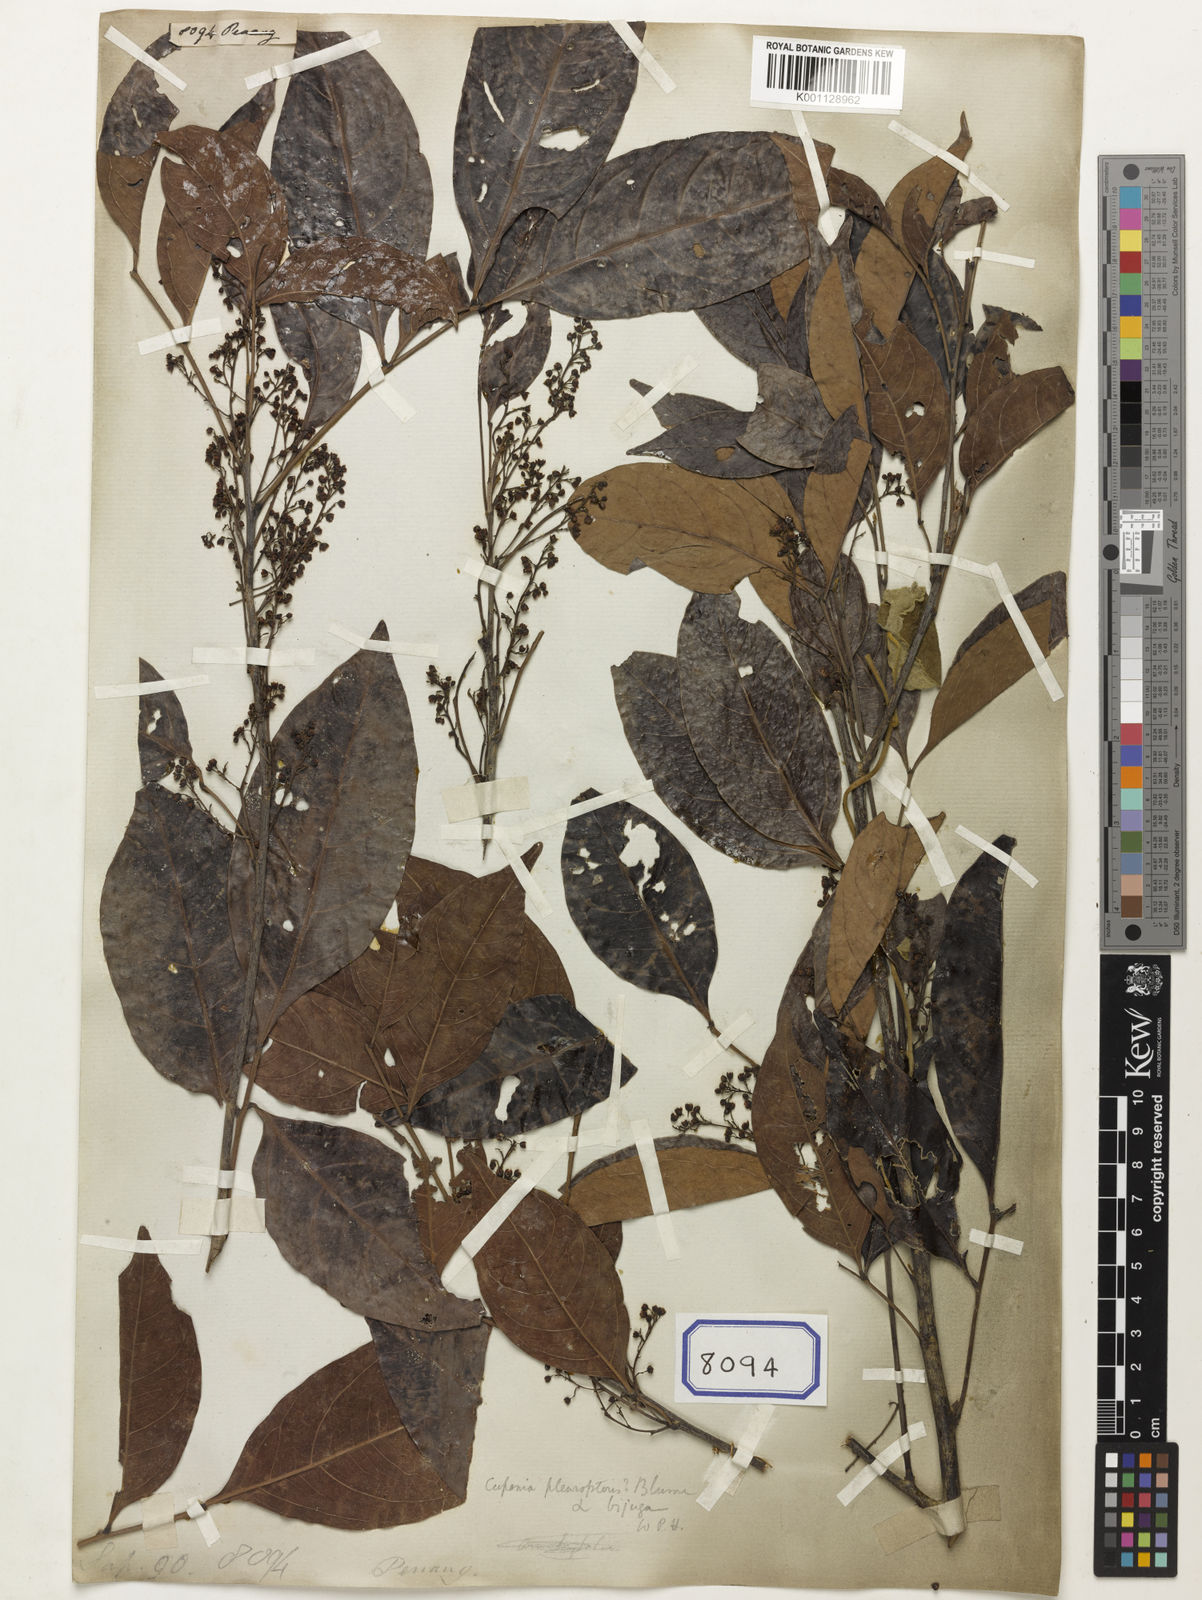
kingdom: Plantae
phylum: Tracheophyta
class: Magnoliopsida
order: Sapindales
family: Sapindaceae
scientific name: Sapindaceae
